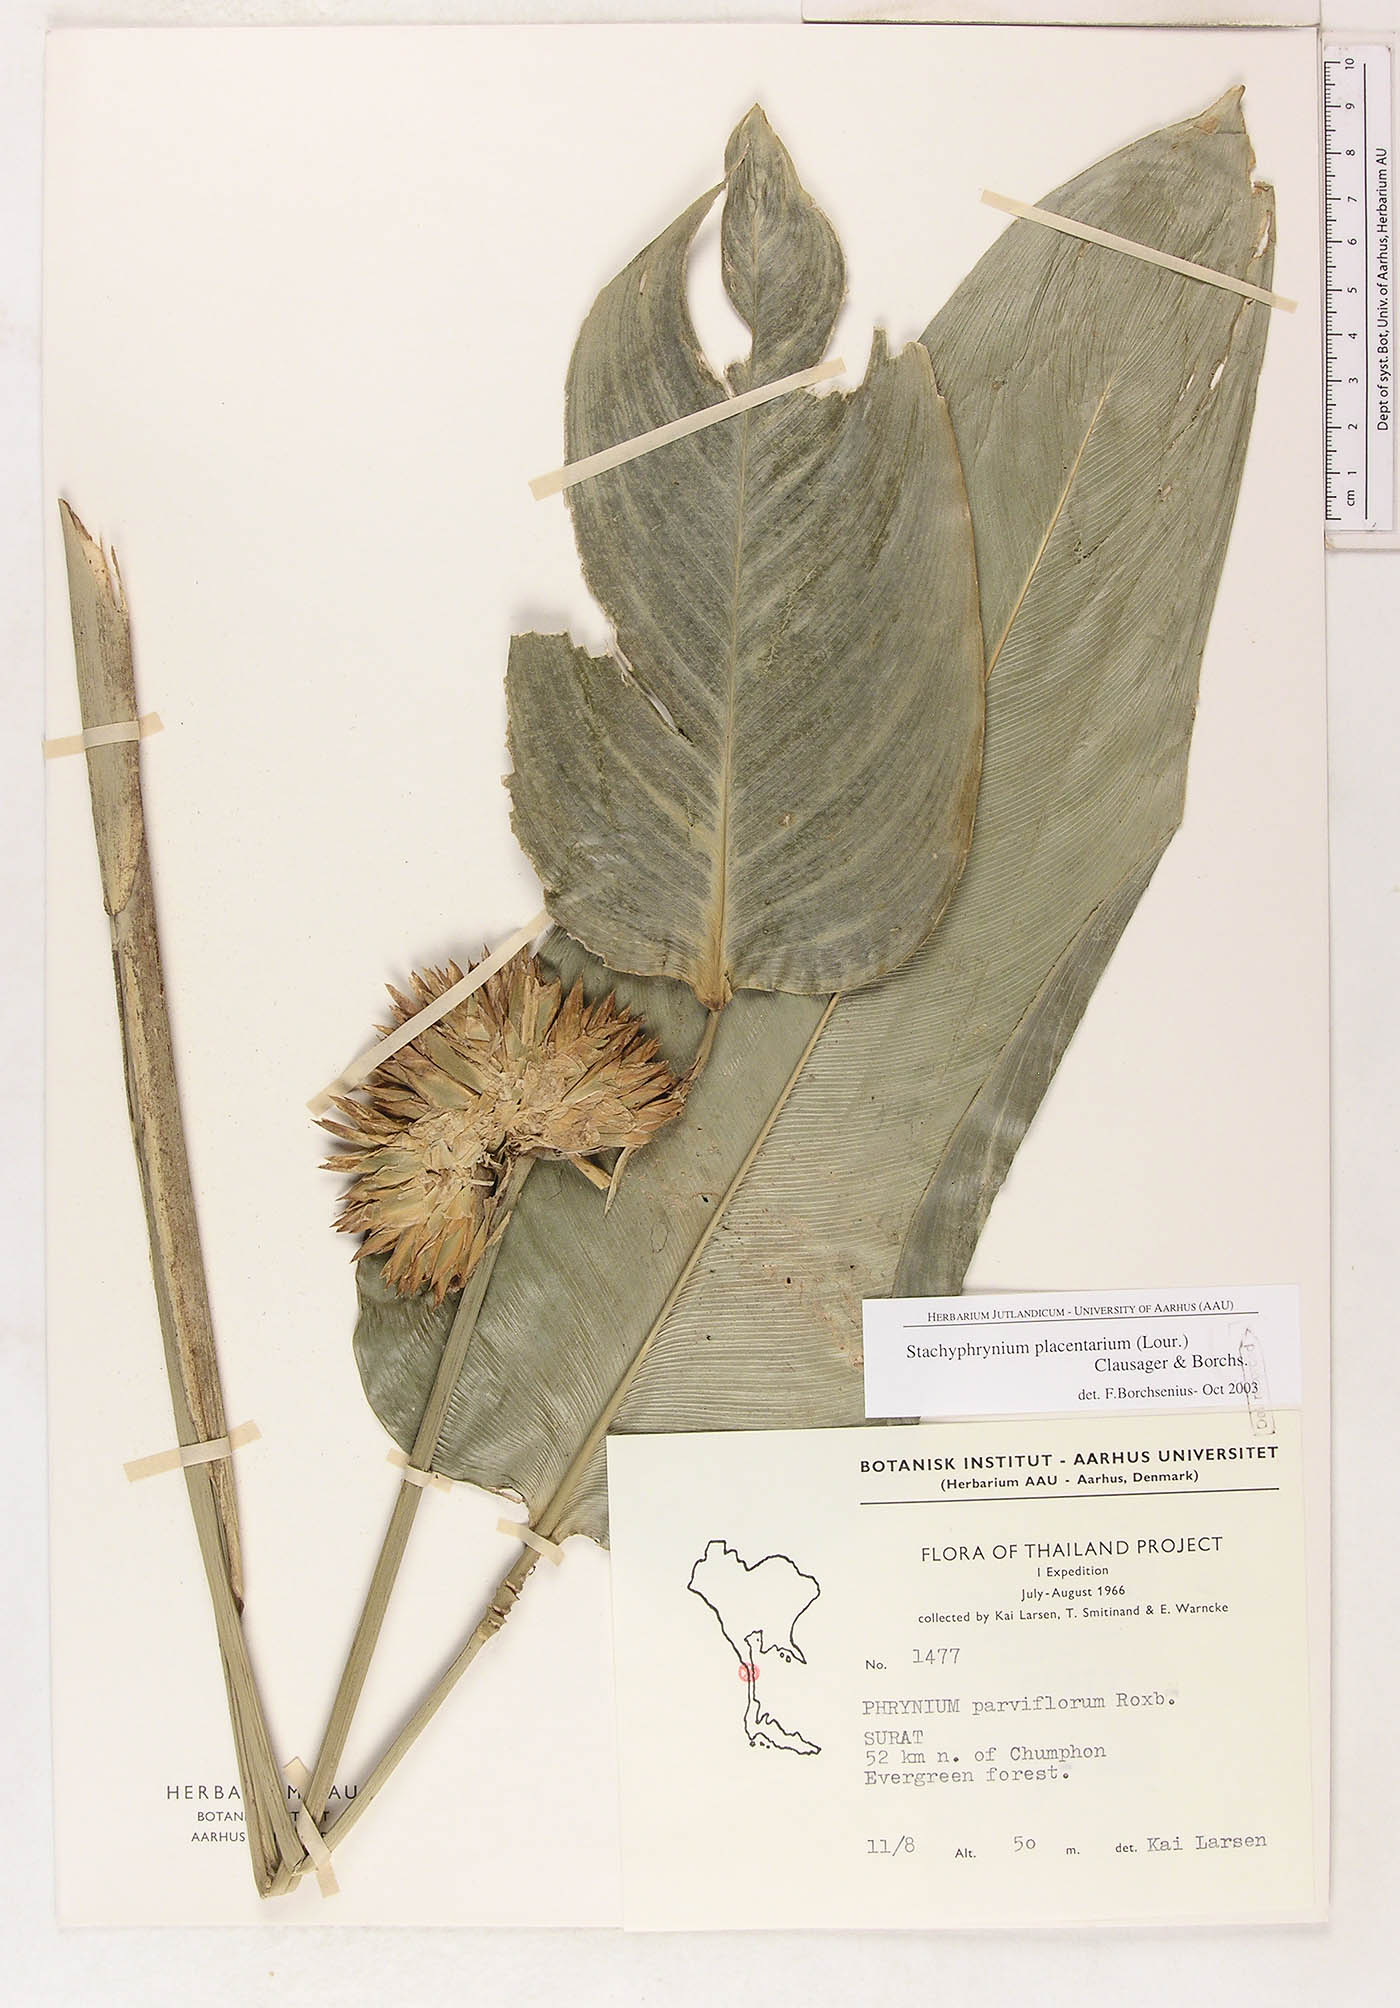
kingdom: Plantae
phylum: Tracheophyta
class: Liliopsida
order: Zingiberales
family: Marantaceae
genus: Stachyphrynium
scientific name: Stachyphrynium placentarium
